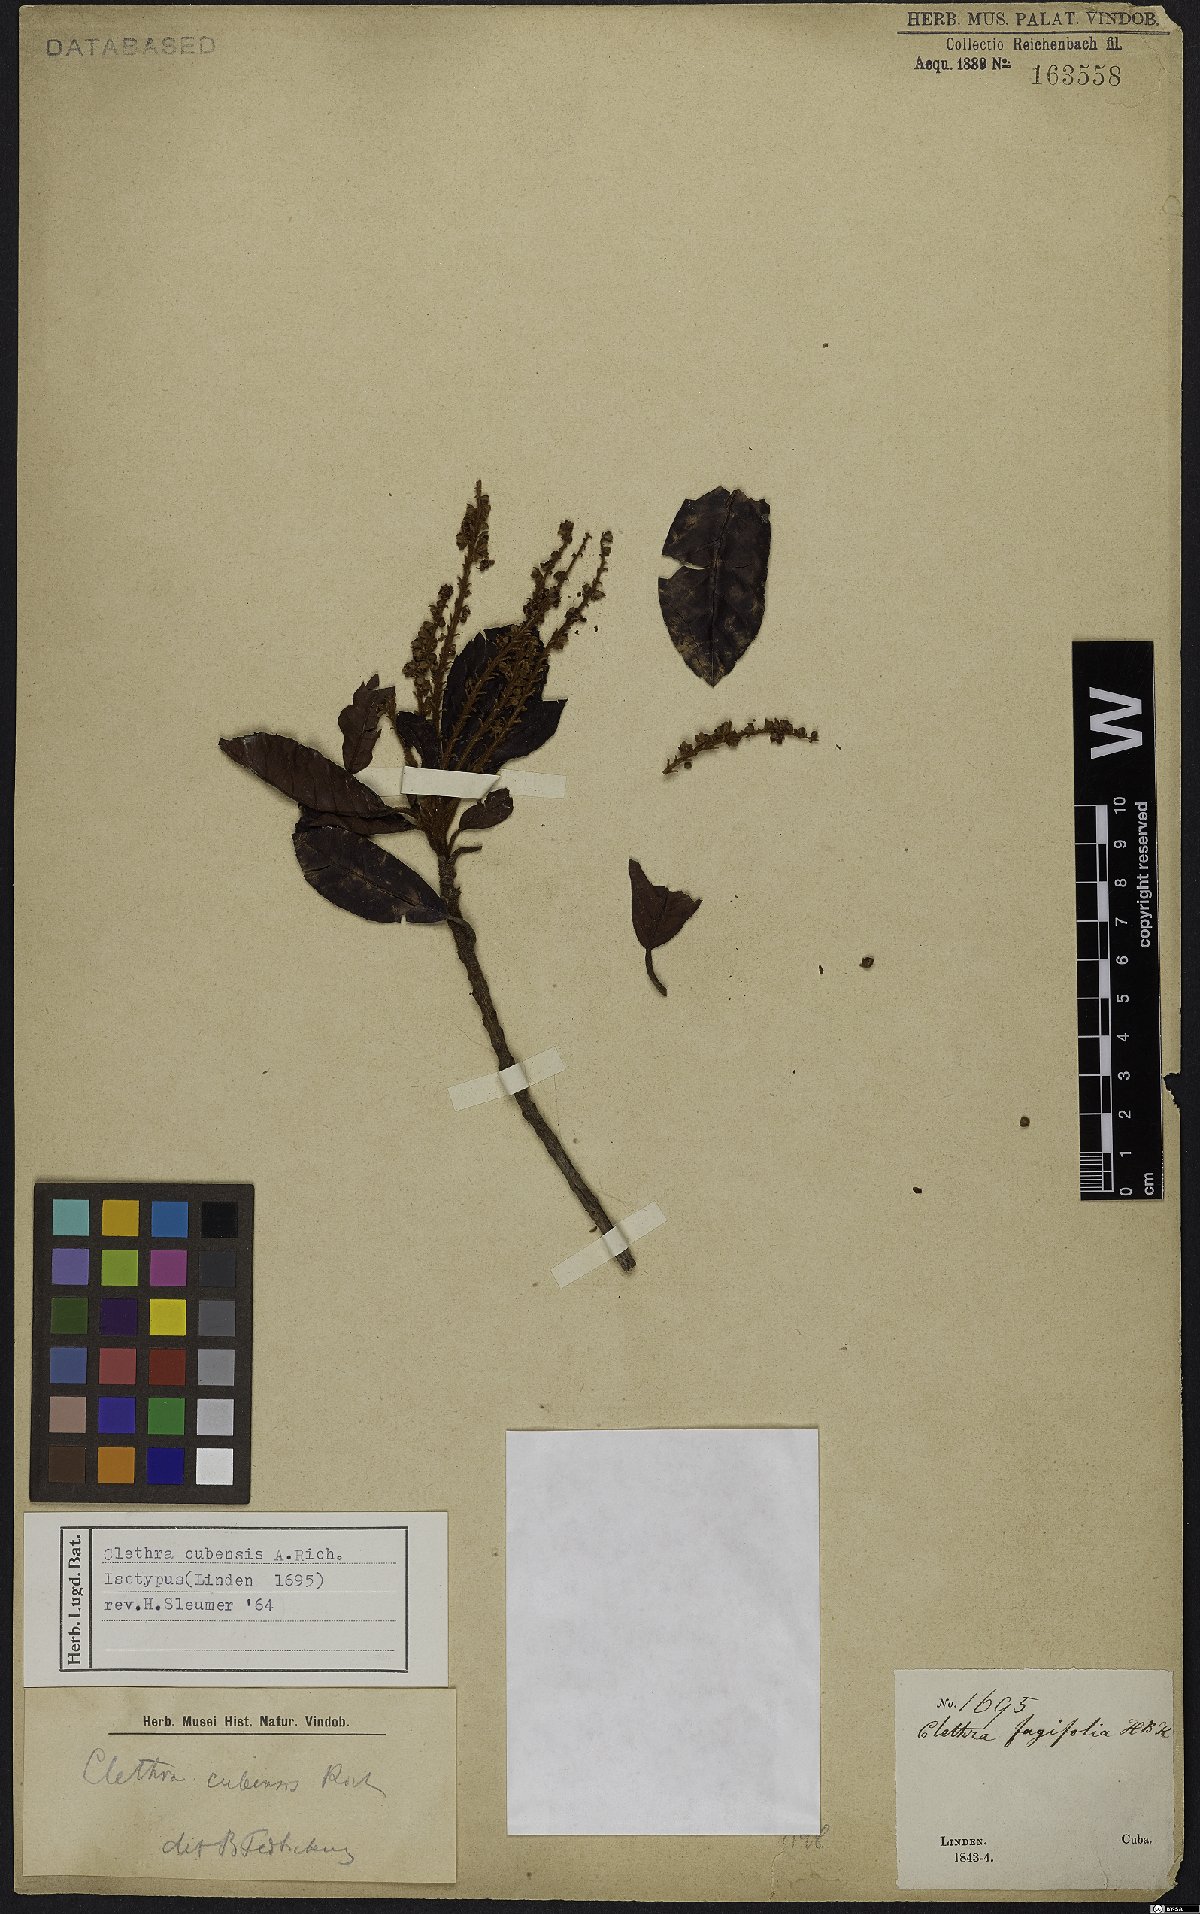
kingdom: Plantae
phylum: Tracheophyta
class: Magnoliopsida
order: Ericales
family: Clethraceae
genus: Clethra
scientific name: Clethra cubensis
